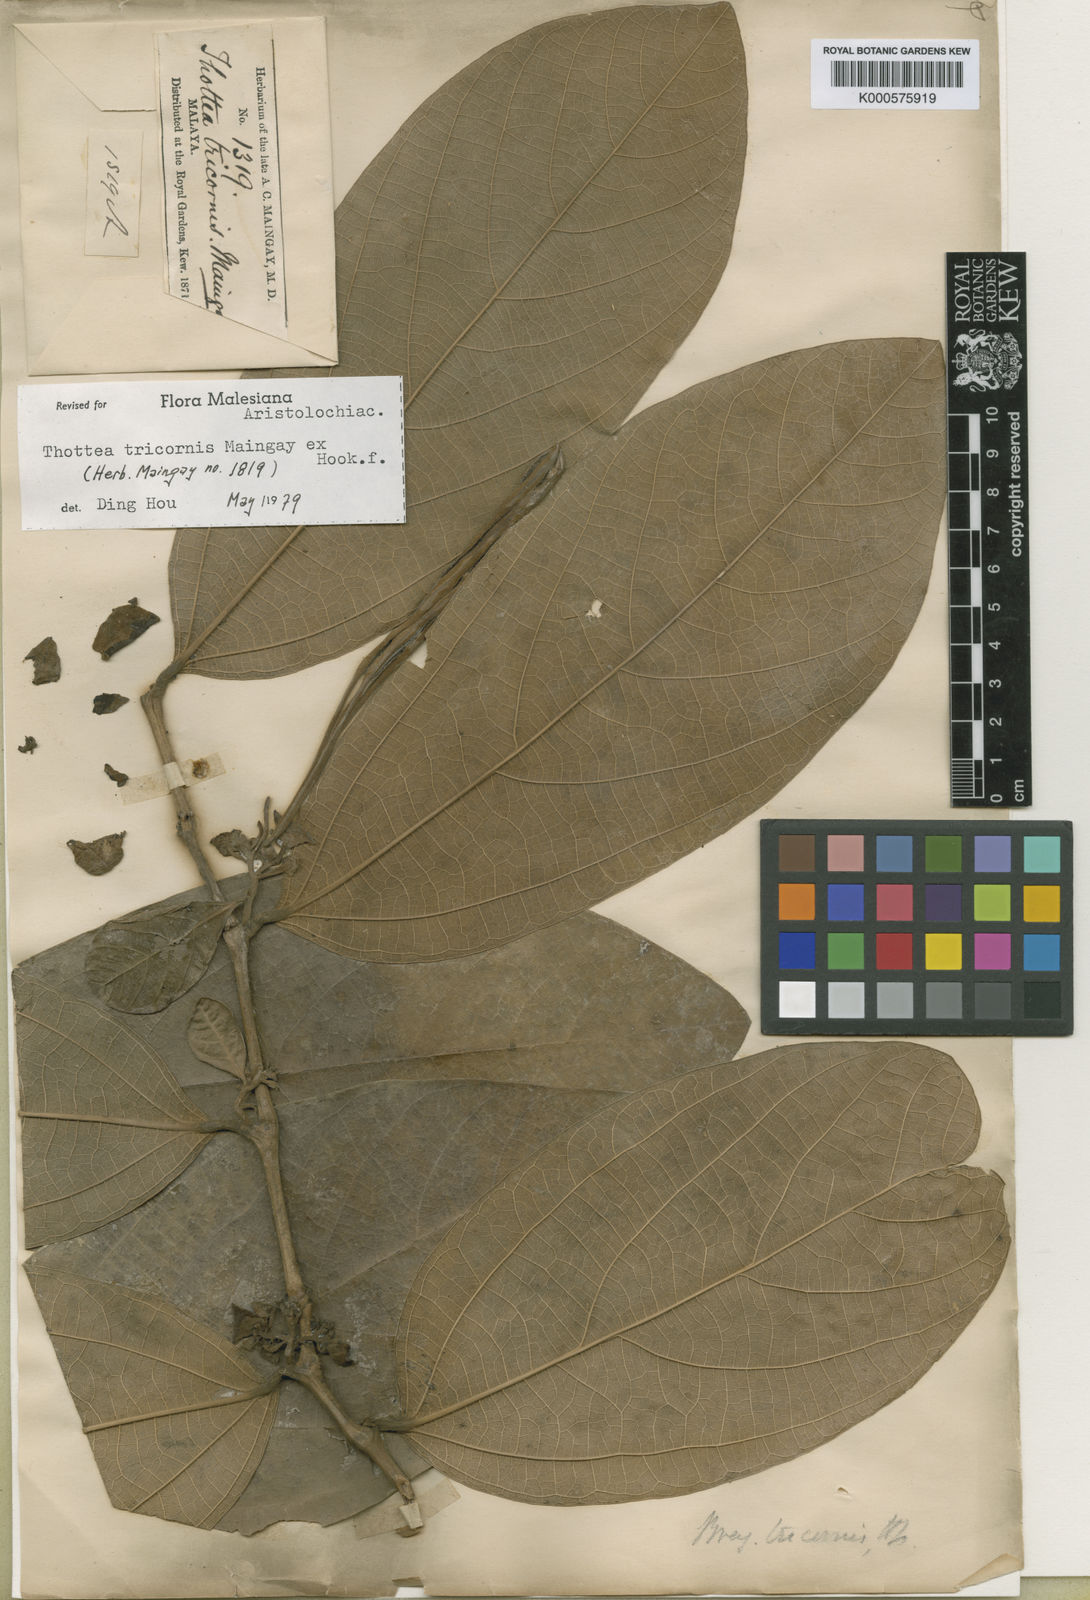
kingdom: Plantae
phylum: Tracheophyta
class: Magnoliopsida
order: Piperales
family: Aristolochiaceae
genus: Thottea
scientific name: Thottea tricornis
